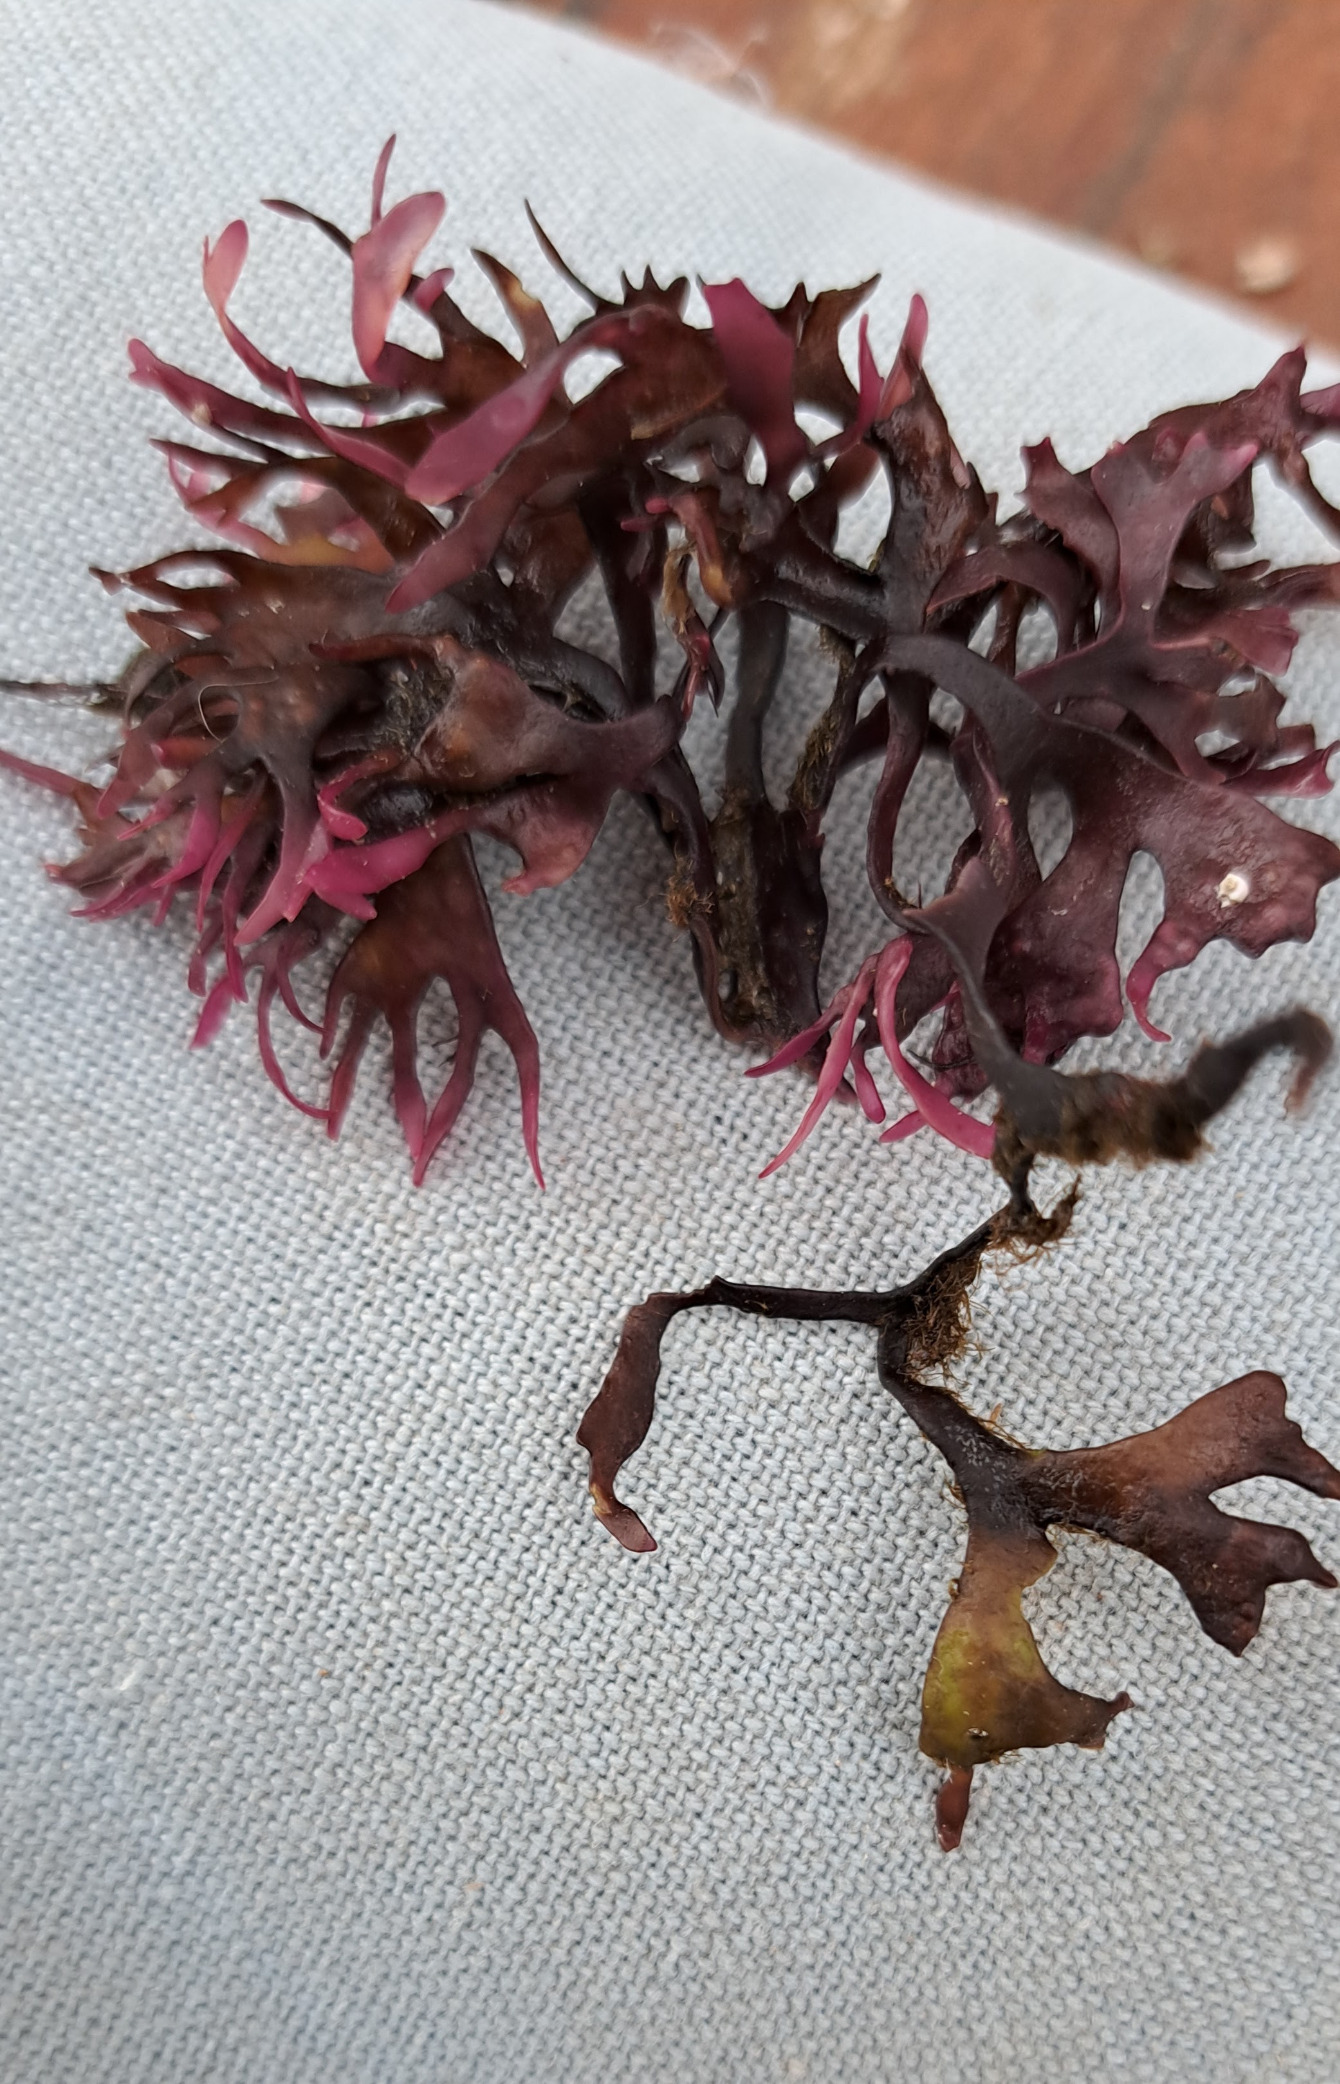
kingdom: Plantae
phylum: Rhodophyta
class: Florideophyceae
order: Gigartinales
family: Gigartinaceae
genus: Chondrus
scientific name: Chondrus crispus
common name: Carrageentang
